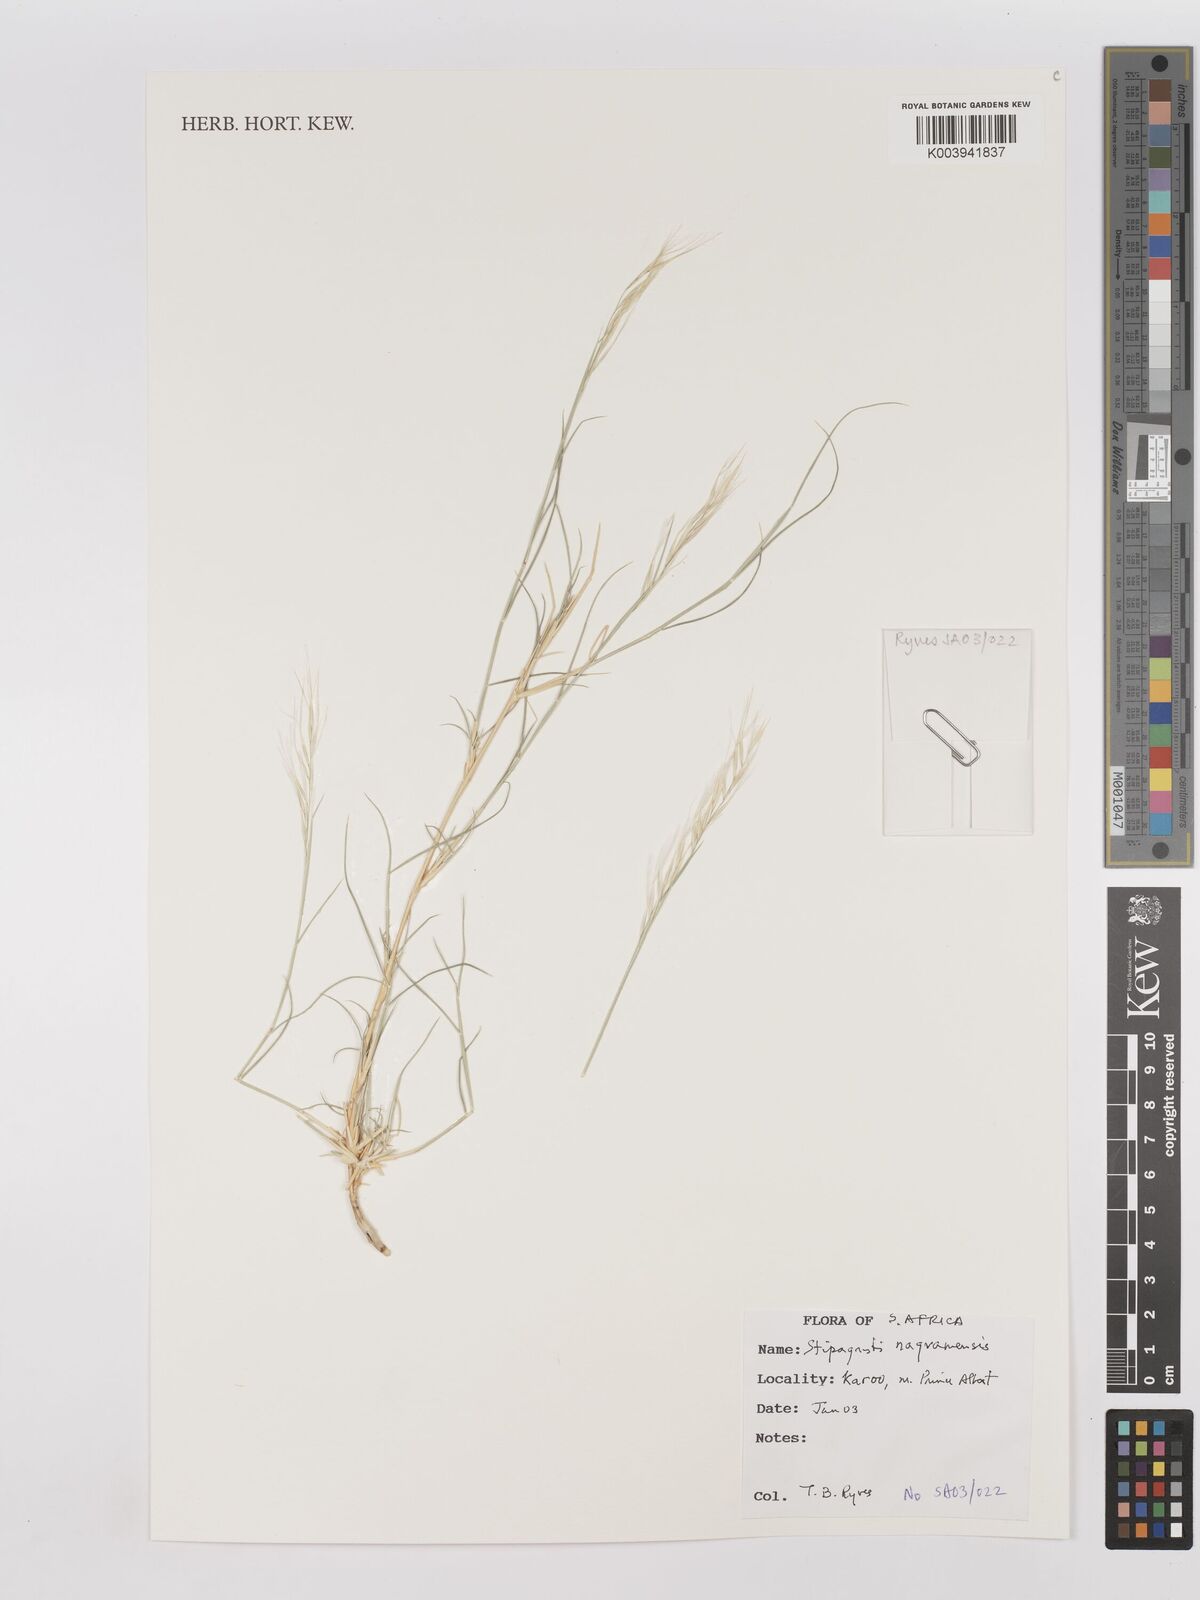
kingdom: Plantae
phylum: Tracheophyta
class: Liliopsida
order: Poales
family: Poaceae
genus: Stipagrostis
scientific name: Stipagrostis namaquensis
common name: River bushman grass
